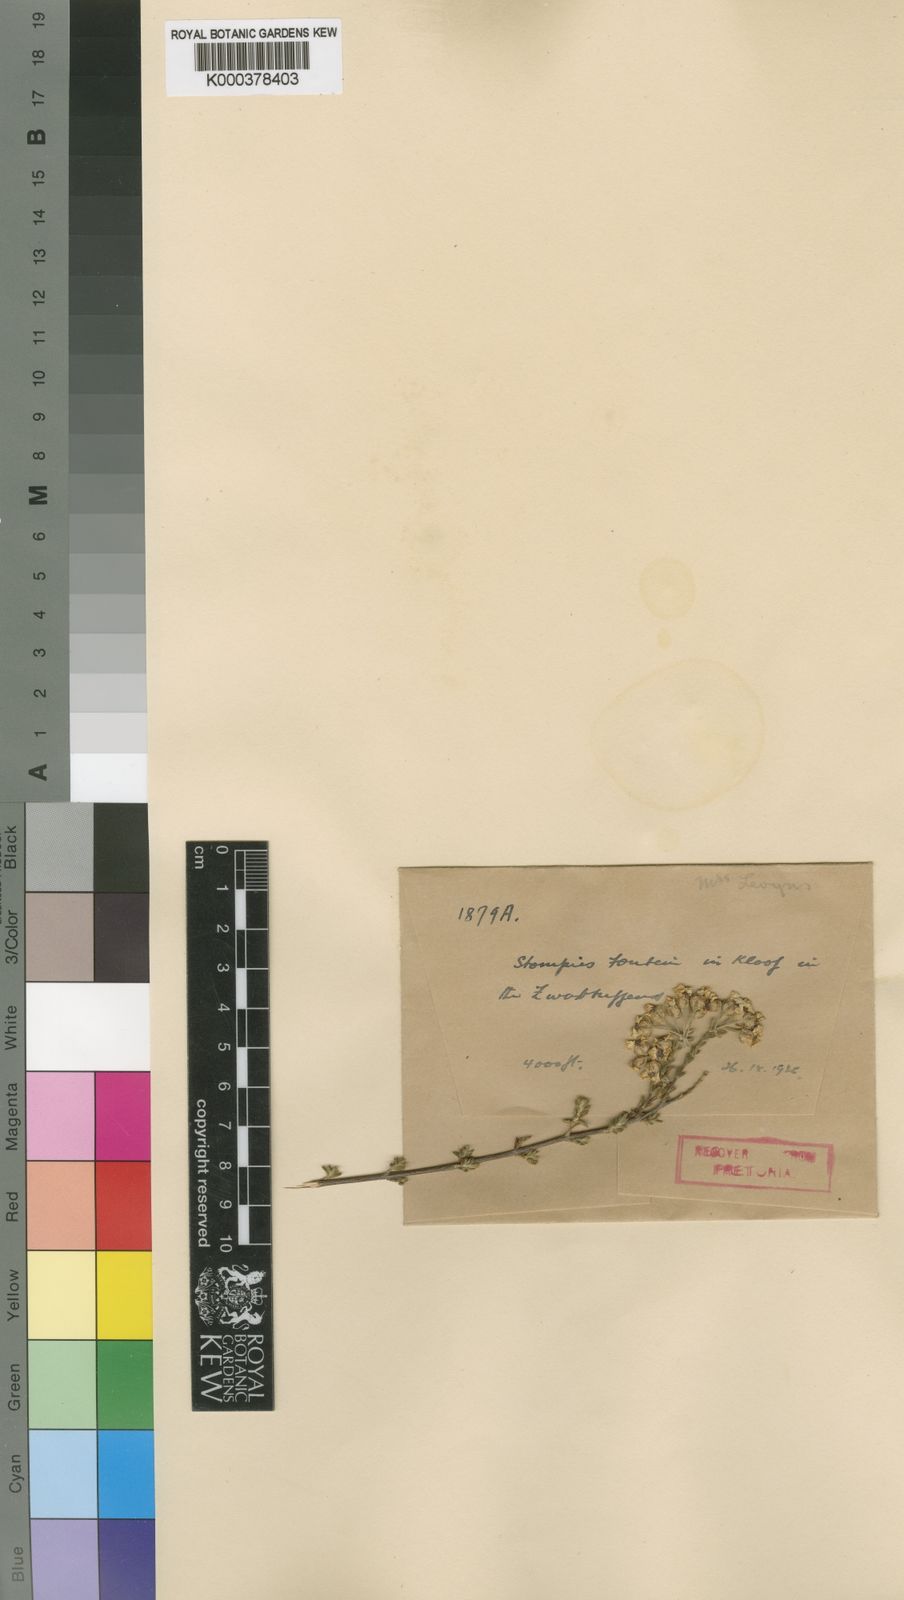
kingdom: Plantae
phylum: Tracheophyta
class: Magnoliopsida
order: Asterales
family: Asteraceae
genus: Eriocephalus
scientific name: Eriocephalus aromaticus
